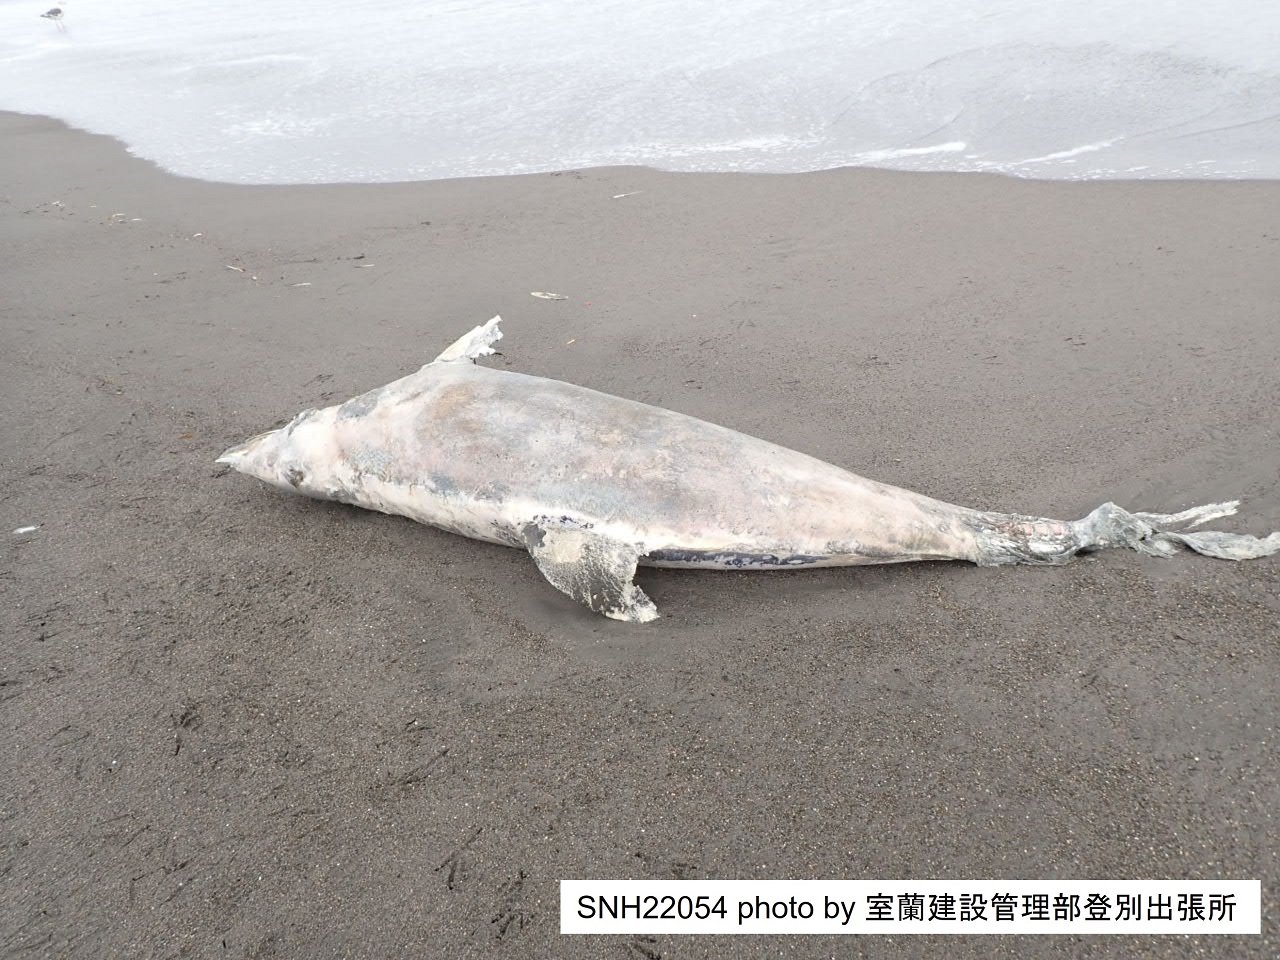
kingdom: Animalia
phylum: Chordata
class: Mammalia
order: Cetacea
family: Delphinidae
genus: Lagenorhynchus
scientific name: Lagenorhynchus obliquidens
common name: Pacific white-sided dolphin
